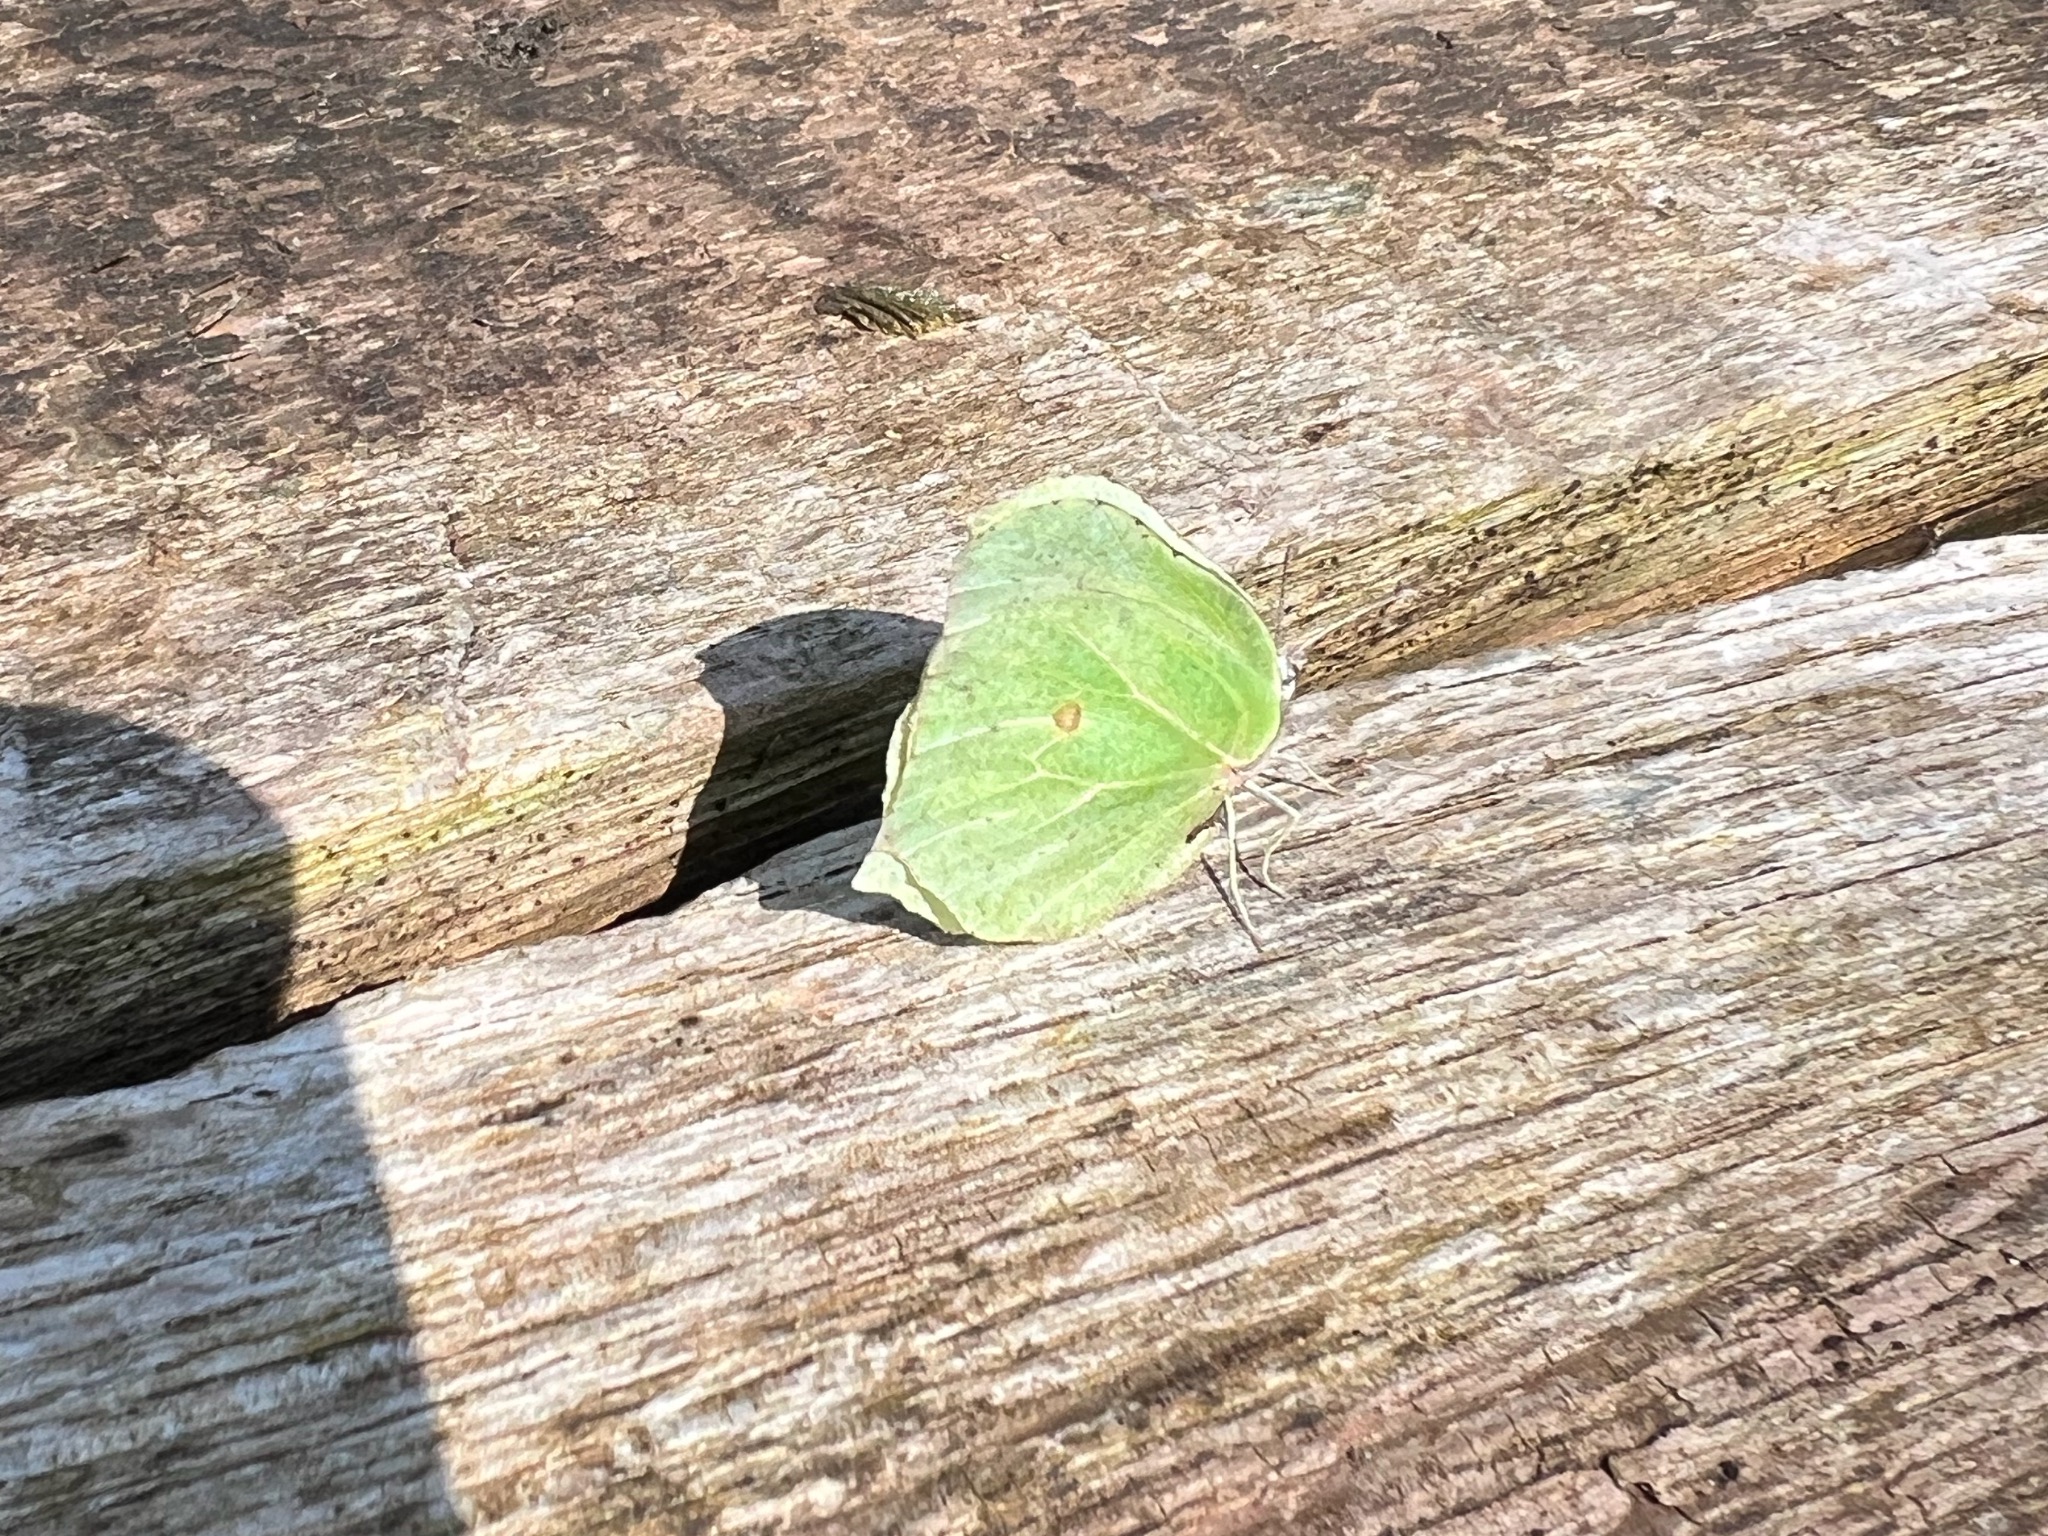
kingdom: Animalia
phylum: Arthropoda
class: Insecta
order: Lepidoptera
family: Pieridae
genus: Gonepteryx
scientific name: Gonepteryx rhamni
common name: Citronsommerfugl
